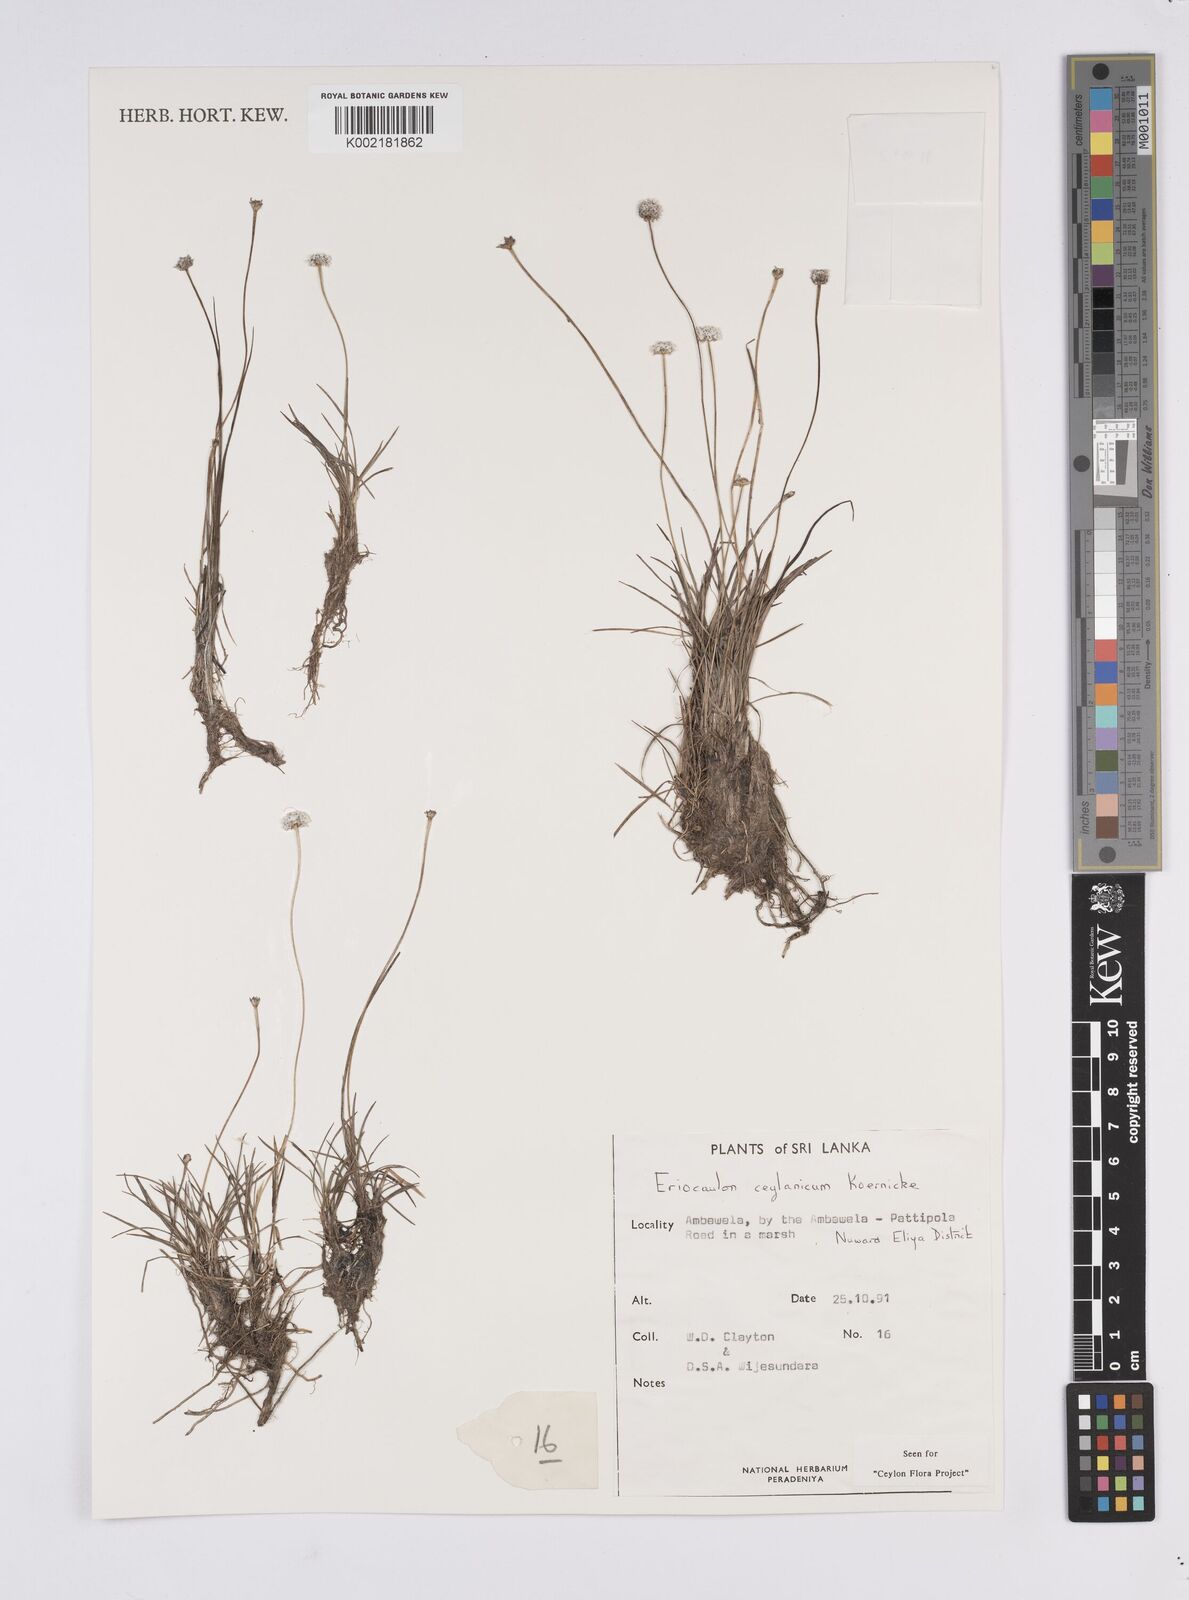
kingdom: Plantae
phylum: Tracheophyta
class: Liliopsida
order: Poales
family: Eriocaulaceae
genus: Eriocaulon
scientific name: Eriocaulon ceylanicum
